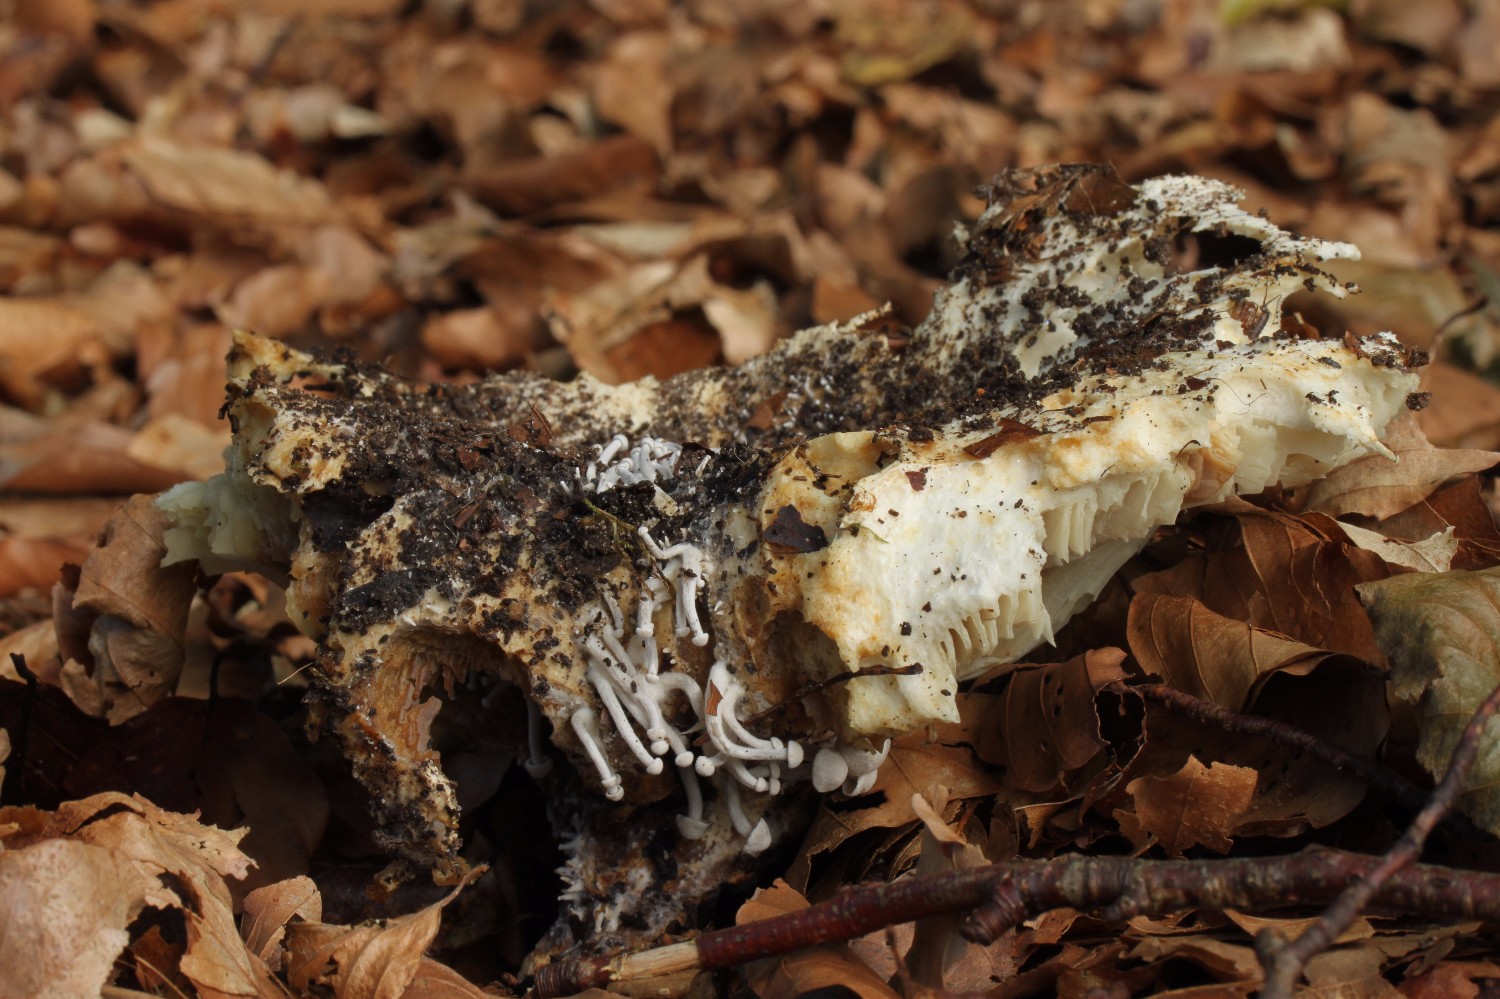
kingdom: Fungi
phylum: Basidiomycota
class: Agaricomycetes
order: Agaricales
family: Lyophyllaceae
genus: Asterophora
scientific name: Asterophora parasitica
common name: grå snyltehat
